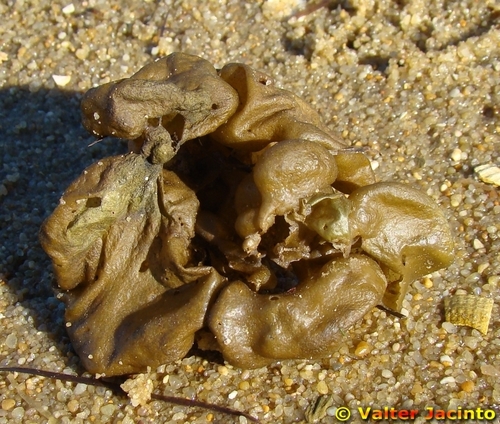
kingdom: Chromista
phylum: Ochrophyta
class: Phaeophyceae
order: Scytosiphonales
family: Scytosiphonaceae
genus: Colpomenia
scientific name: Colpomenia peregrina
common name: Oyster thief
